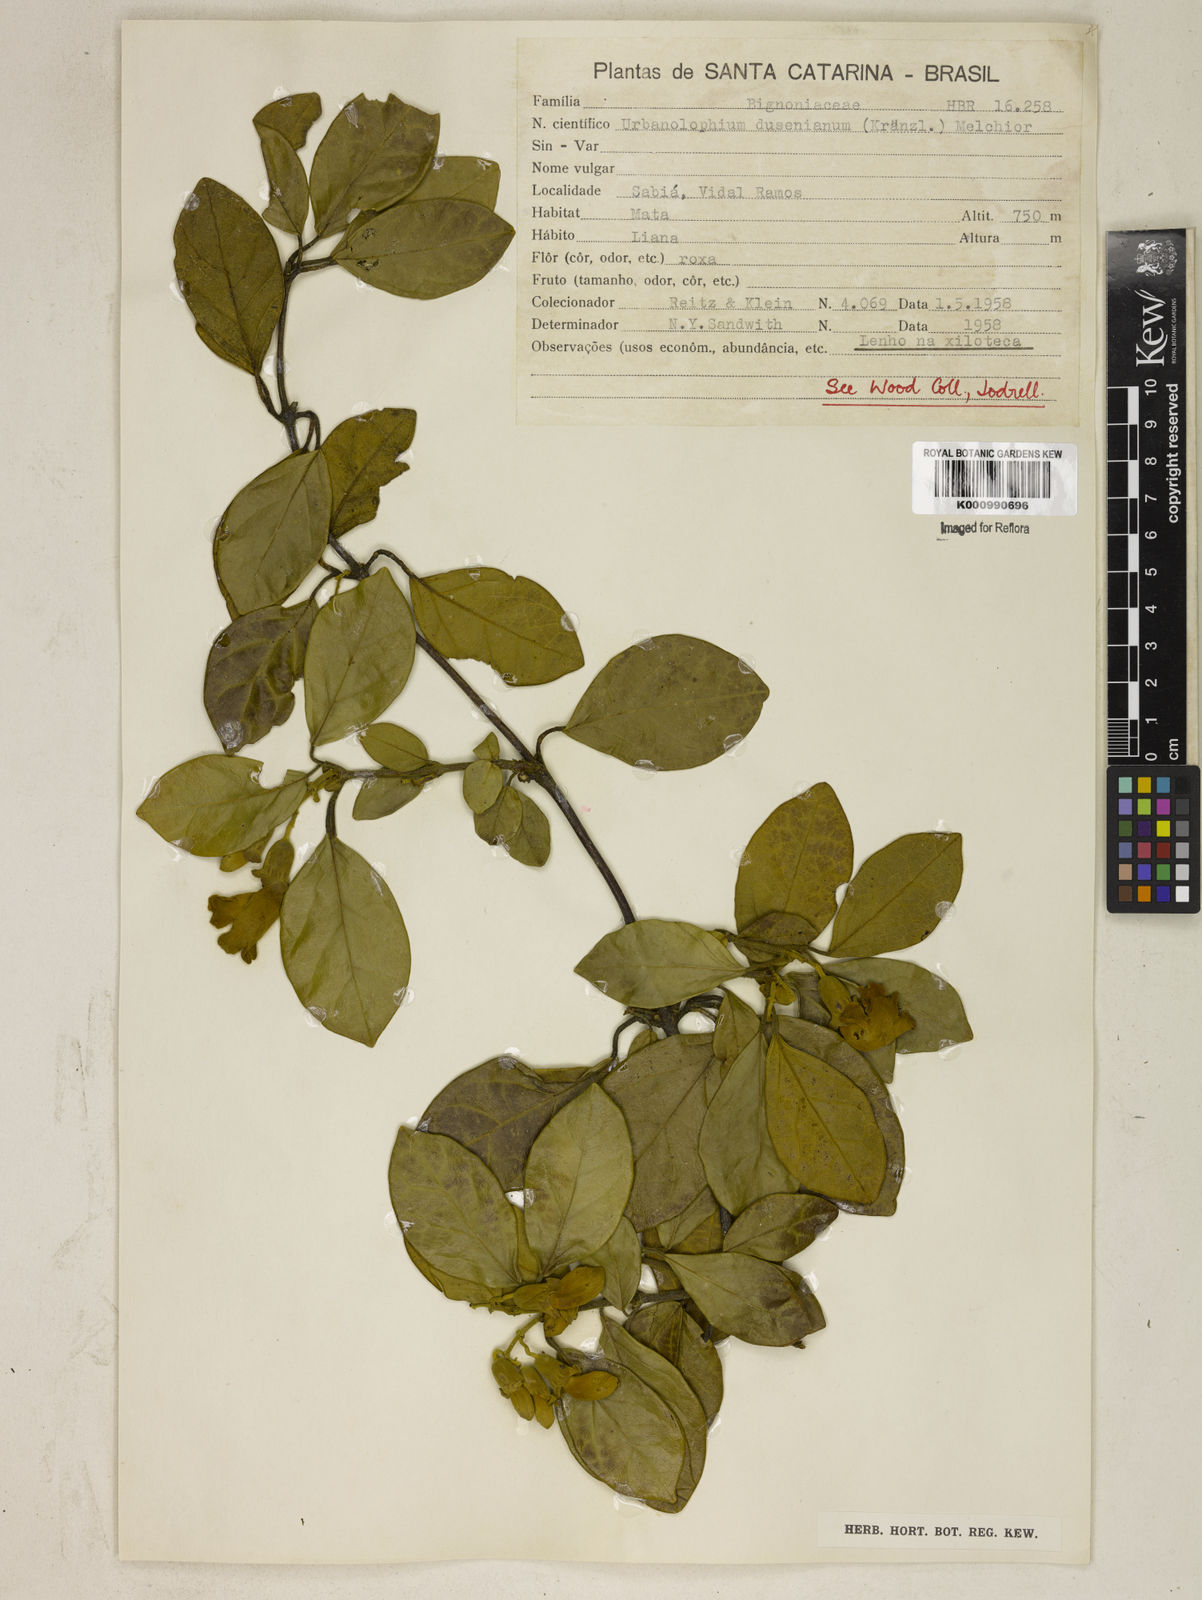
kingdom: Plantae
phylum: Tracheophyta
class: Magnoliopsida
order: Lamiales
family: Bignoniaceae
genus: Amphilophium
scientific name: Amphilophium dusenianum
